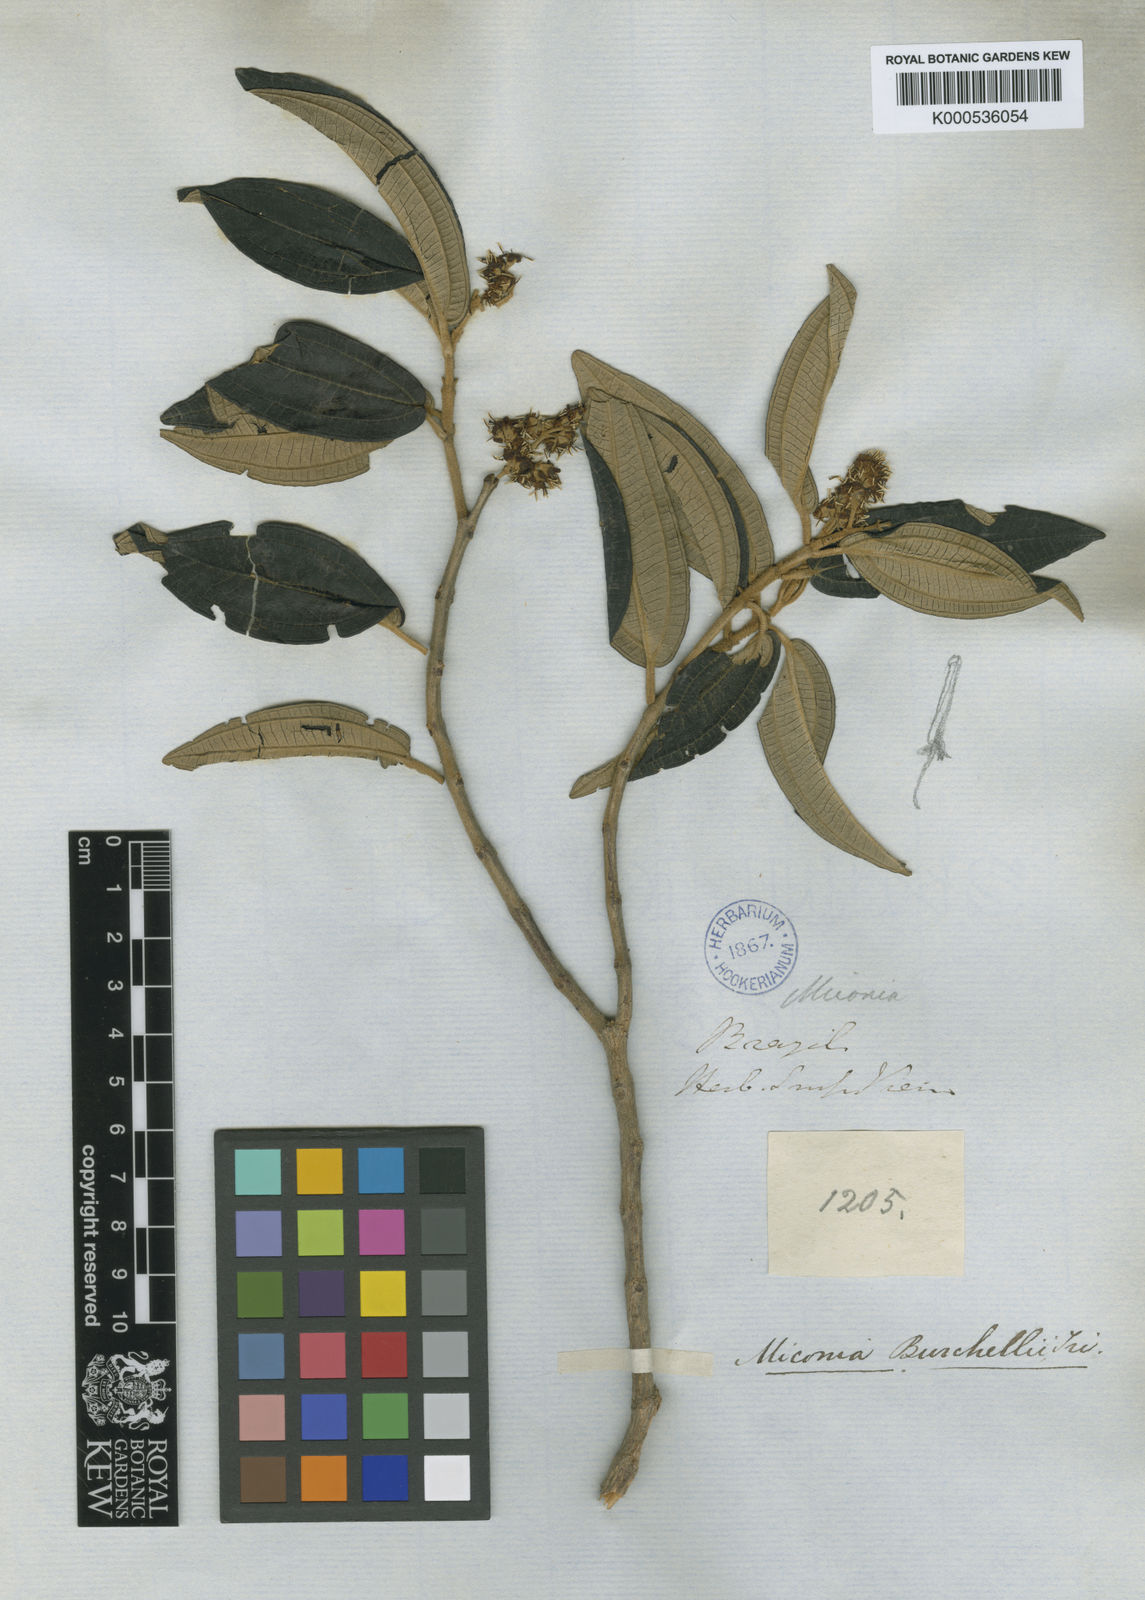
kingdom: Plantae
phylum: Tracheophyta
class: Magnoliopsida
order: Myrtales
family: Melastomataceae
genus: Miconia
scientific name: Miconia burchellii
